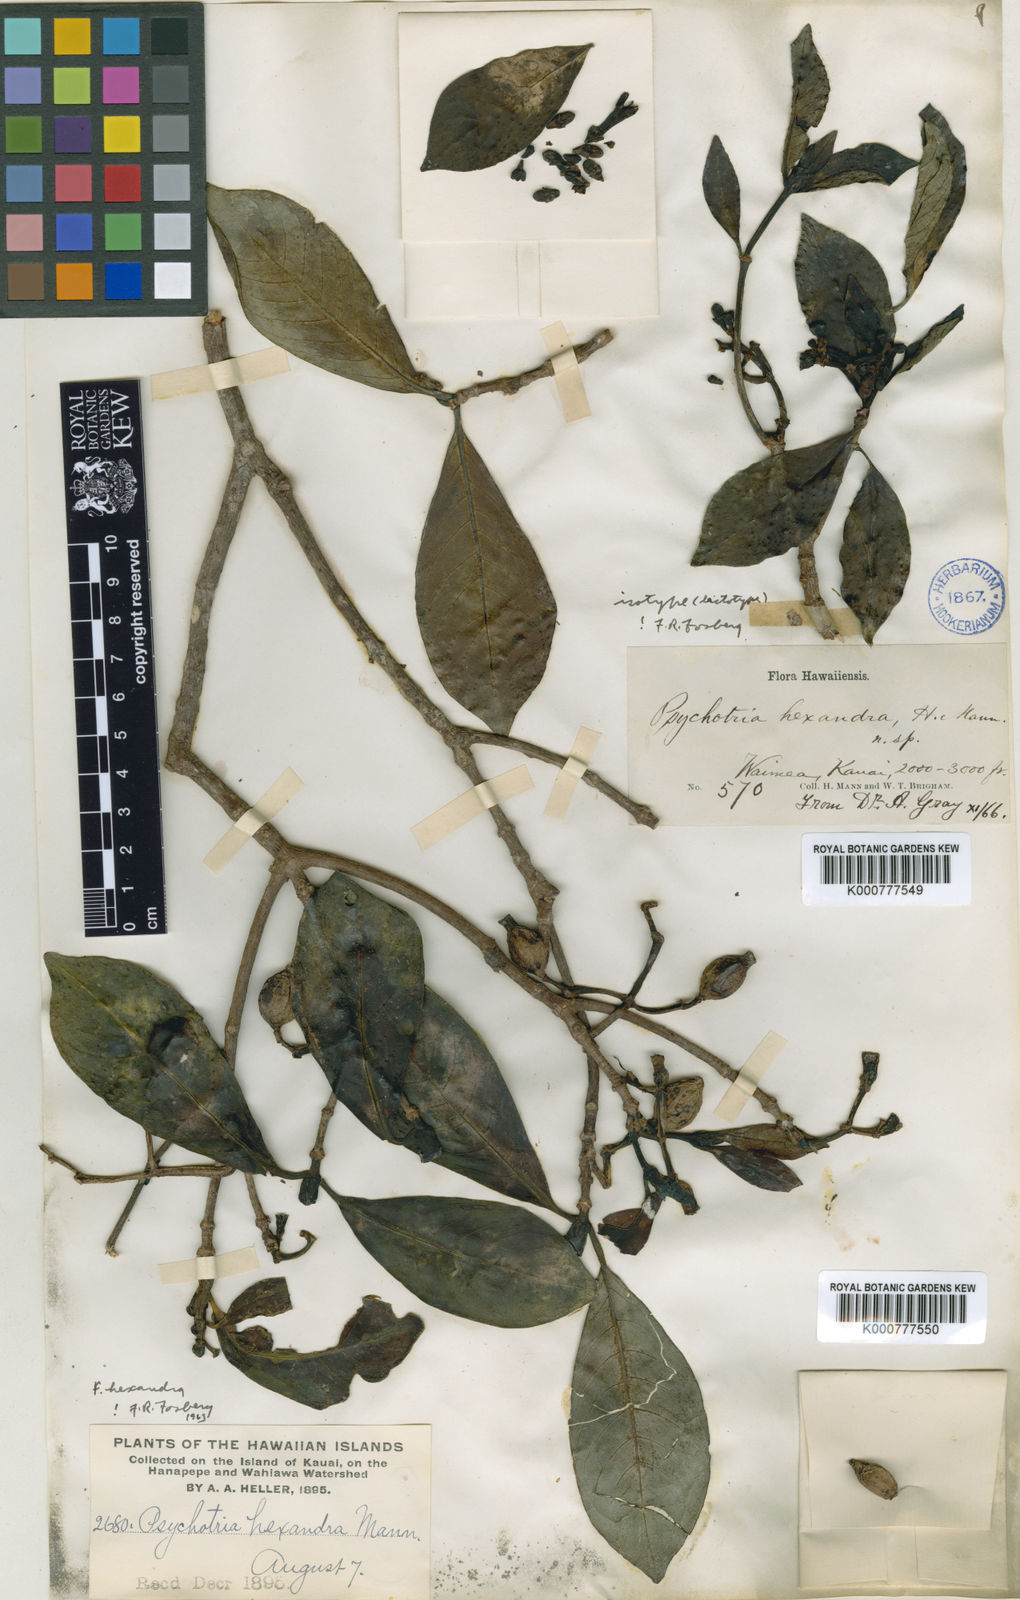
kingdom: Plantae
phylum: Tracheophyta
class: Magnoliopsida
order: Gentianales
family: Rubiaceae
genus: Psychotria
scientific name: Psychotria hexandra
